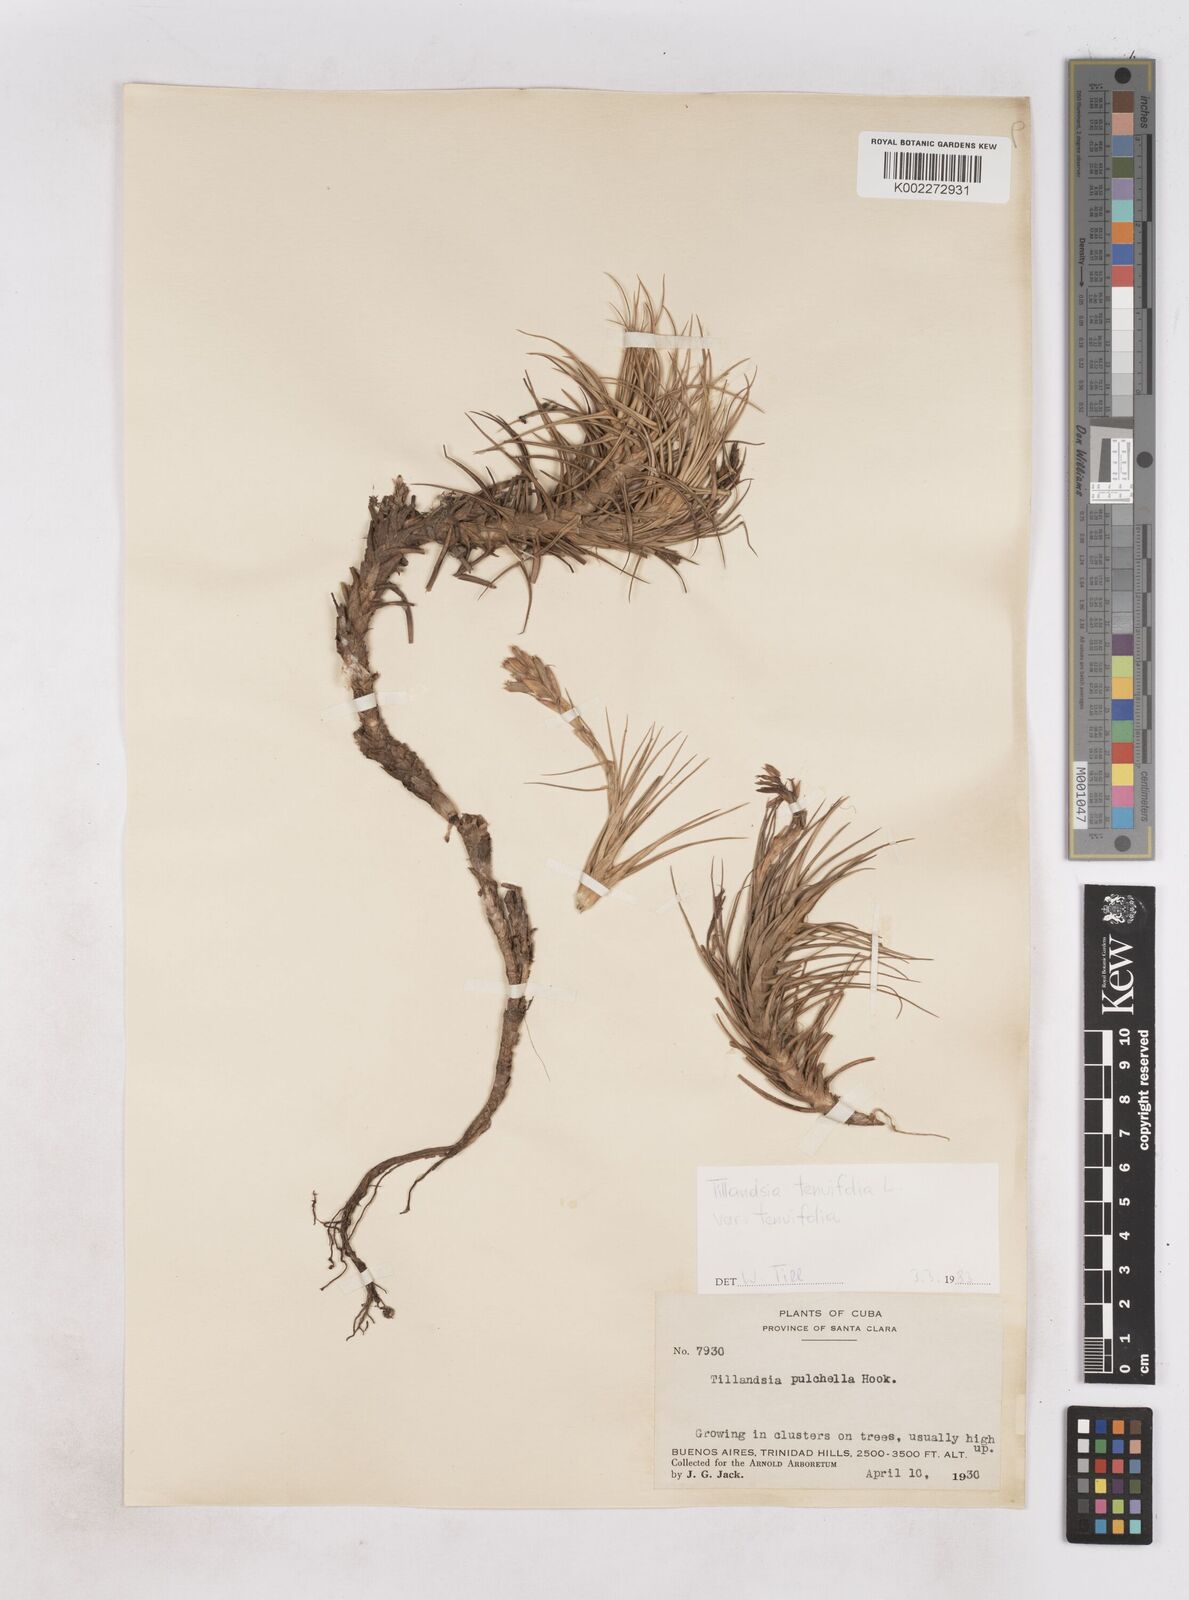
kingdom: Plantae
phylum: Tracheophyta
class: Liliopsida
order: Poales
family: Bromeliaceae
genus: Tillandsia
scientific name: Tillandsia tenuifolia
